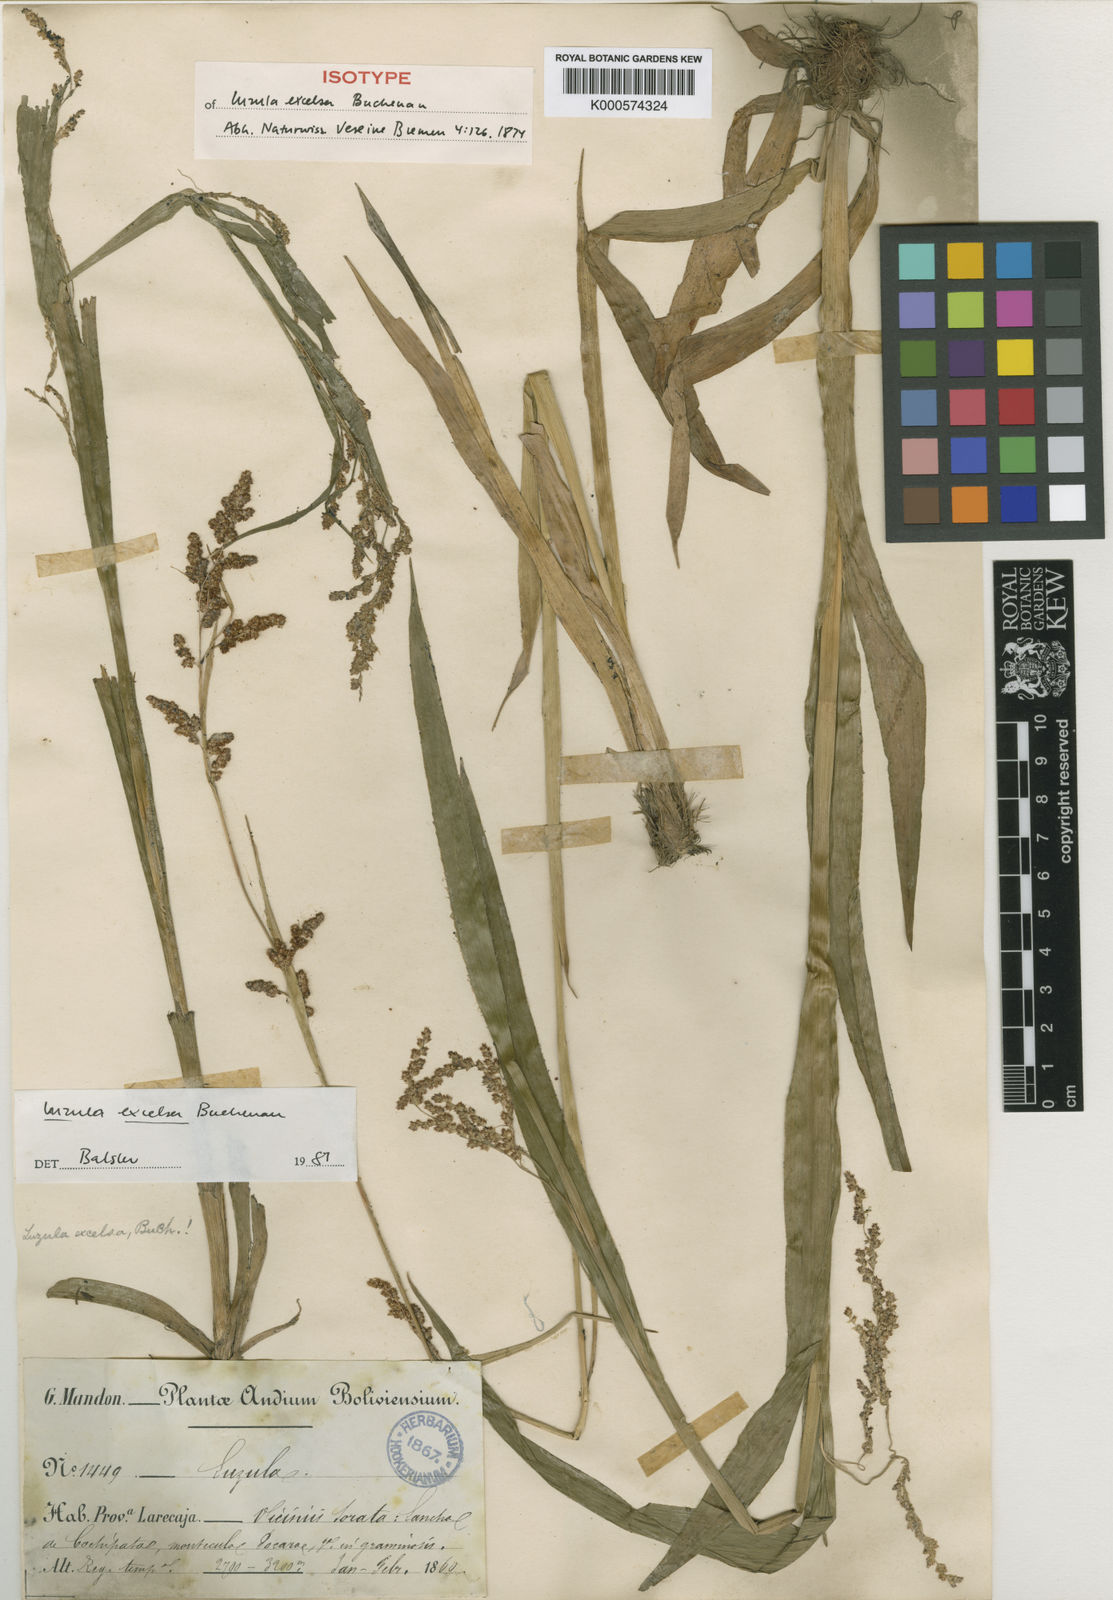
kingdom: Plantae
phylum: Tracheophyta
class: Liliopsida
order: Poales
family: Juncaceae
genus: Luzula
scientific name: Luzula excelsa
